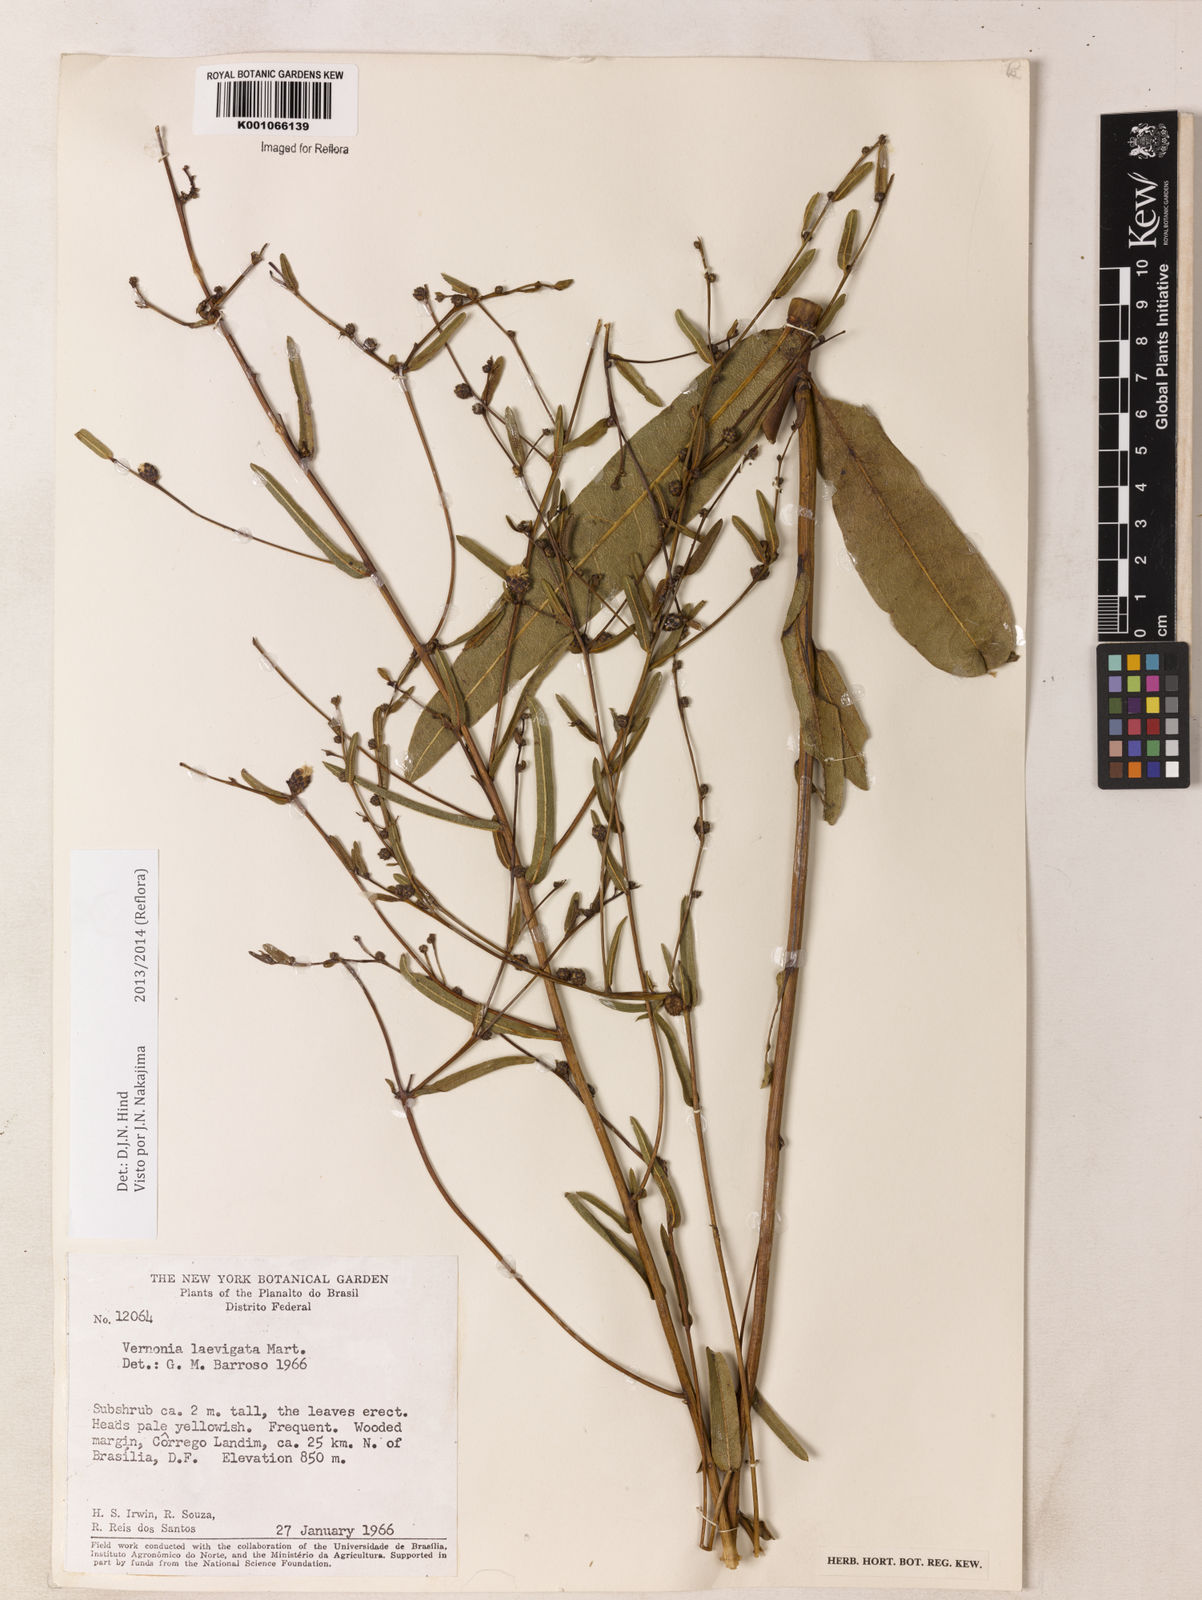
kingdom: Plantae
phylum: Tracheophyta
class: Magnoliopsida
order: Asterales
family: Asteraceae
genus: Lessingianthus
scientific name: Lessingianthus laevigatus
